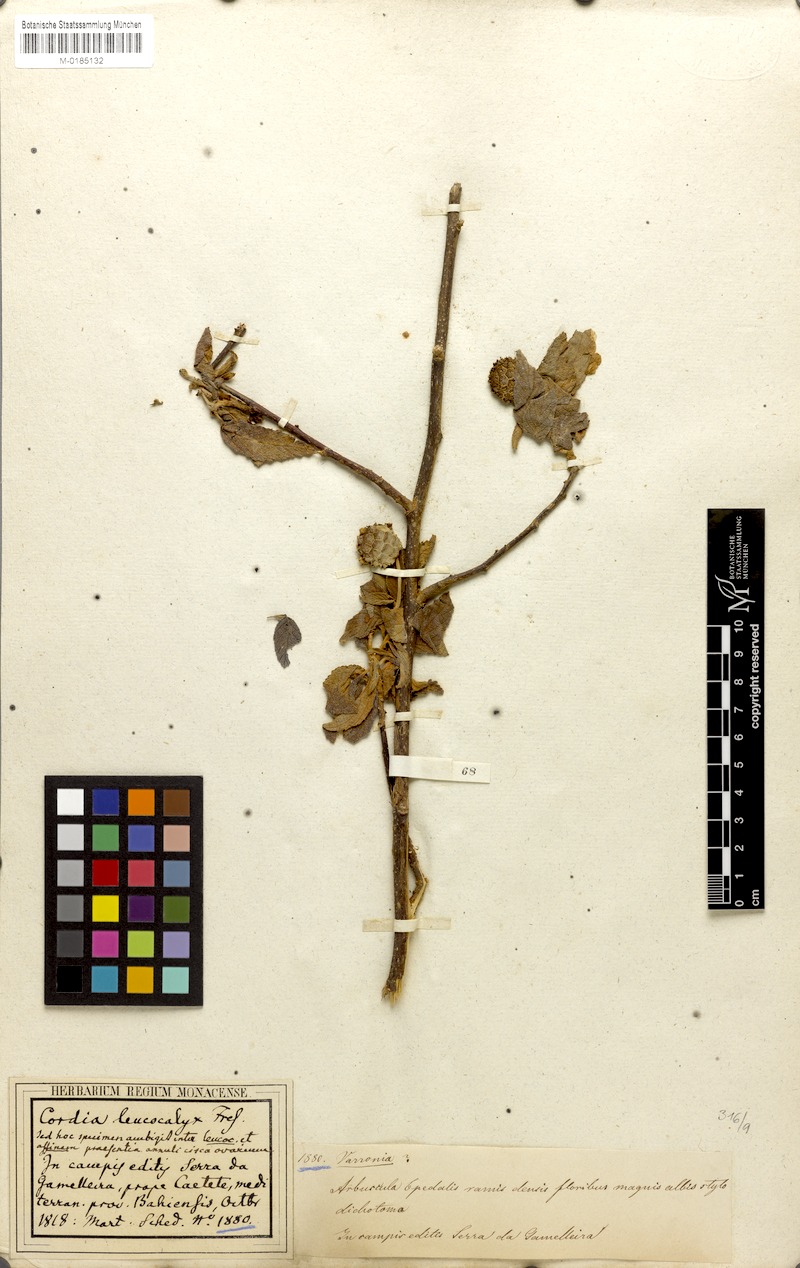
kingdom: Plantae
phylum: Tracheophyta
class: Magnoliopsida
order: Boraginales
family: Cordiaceae
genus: Varronia
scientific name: Varronia leucocephala
